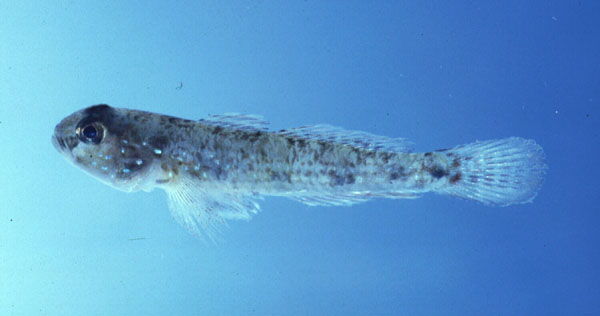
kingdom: Animalia
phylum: Chordata
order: Perciformes
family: Gobiidae
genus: Amoya
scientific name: Amoya signata
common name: Tusk goby
